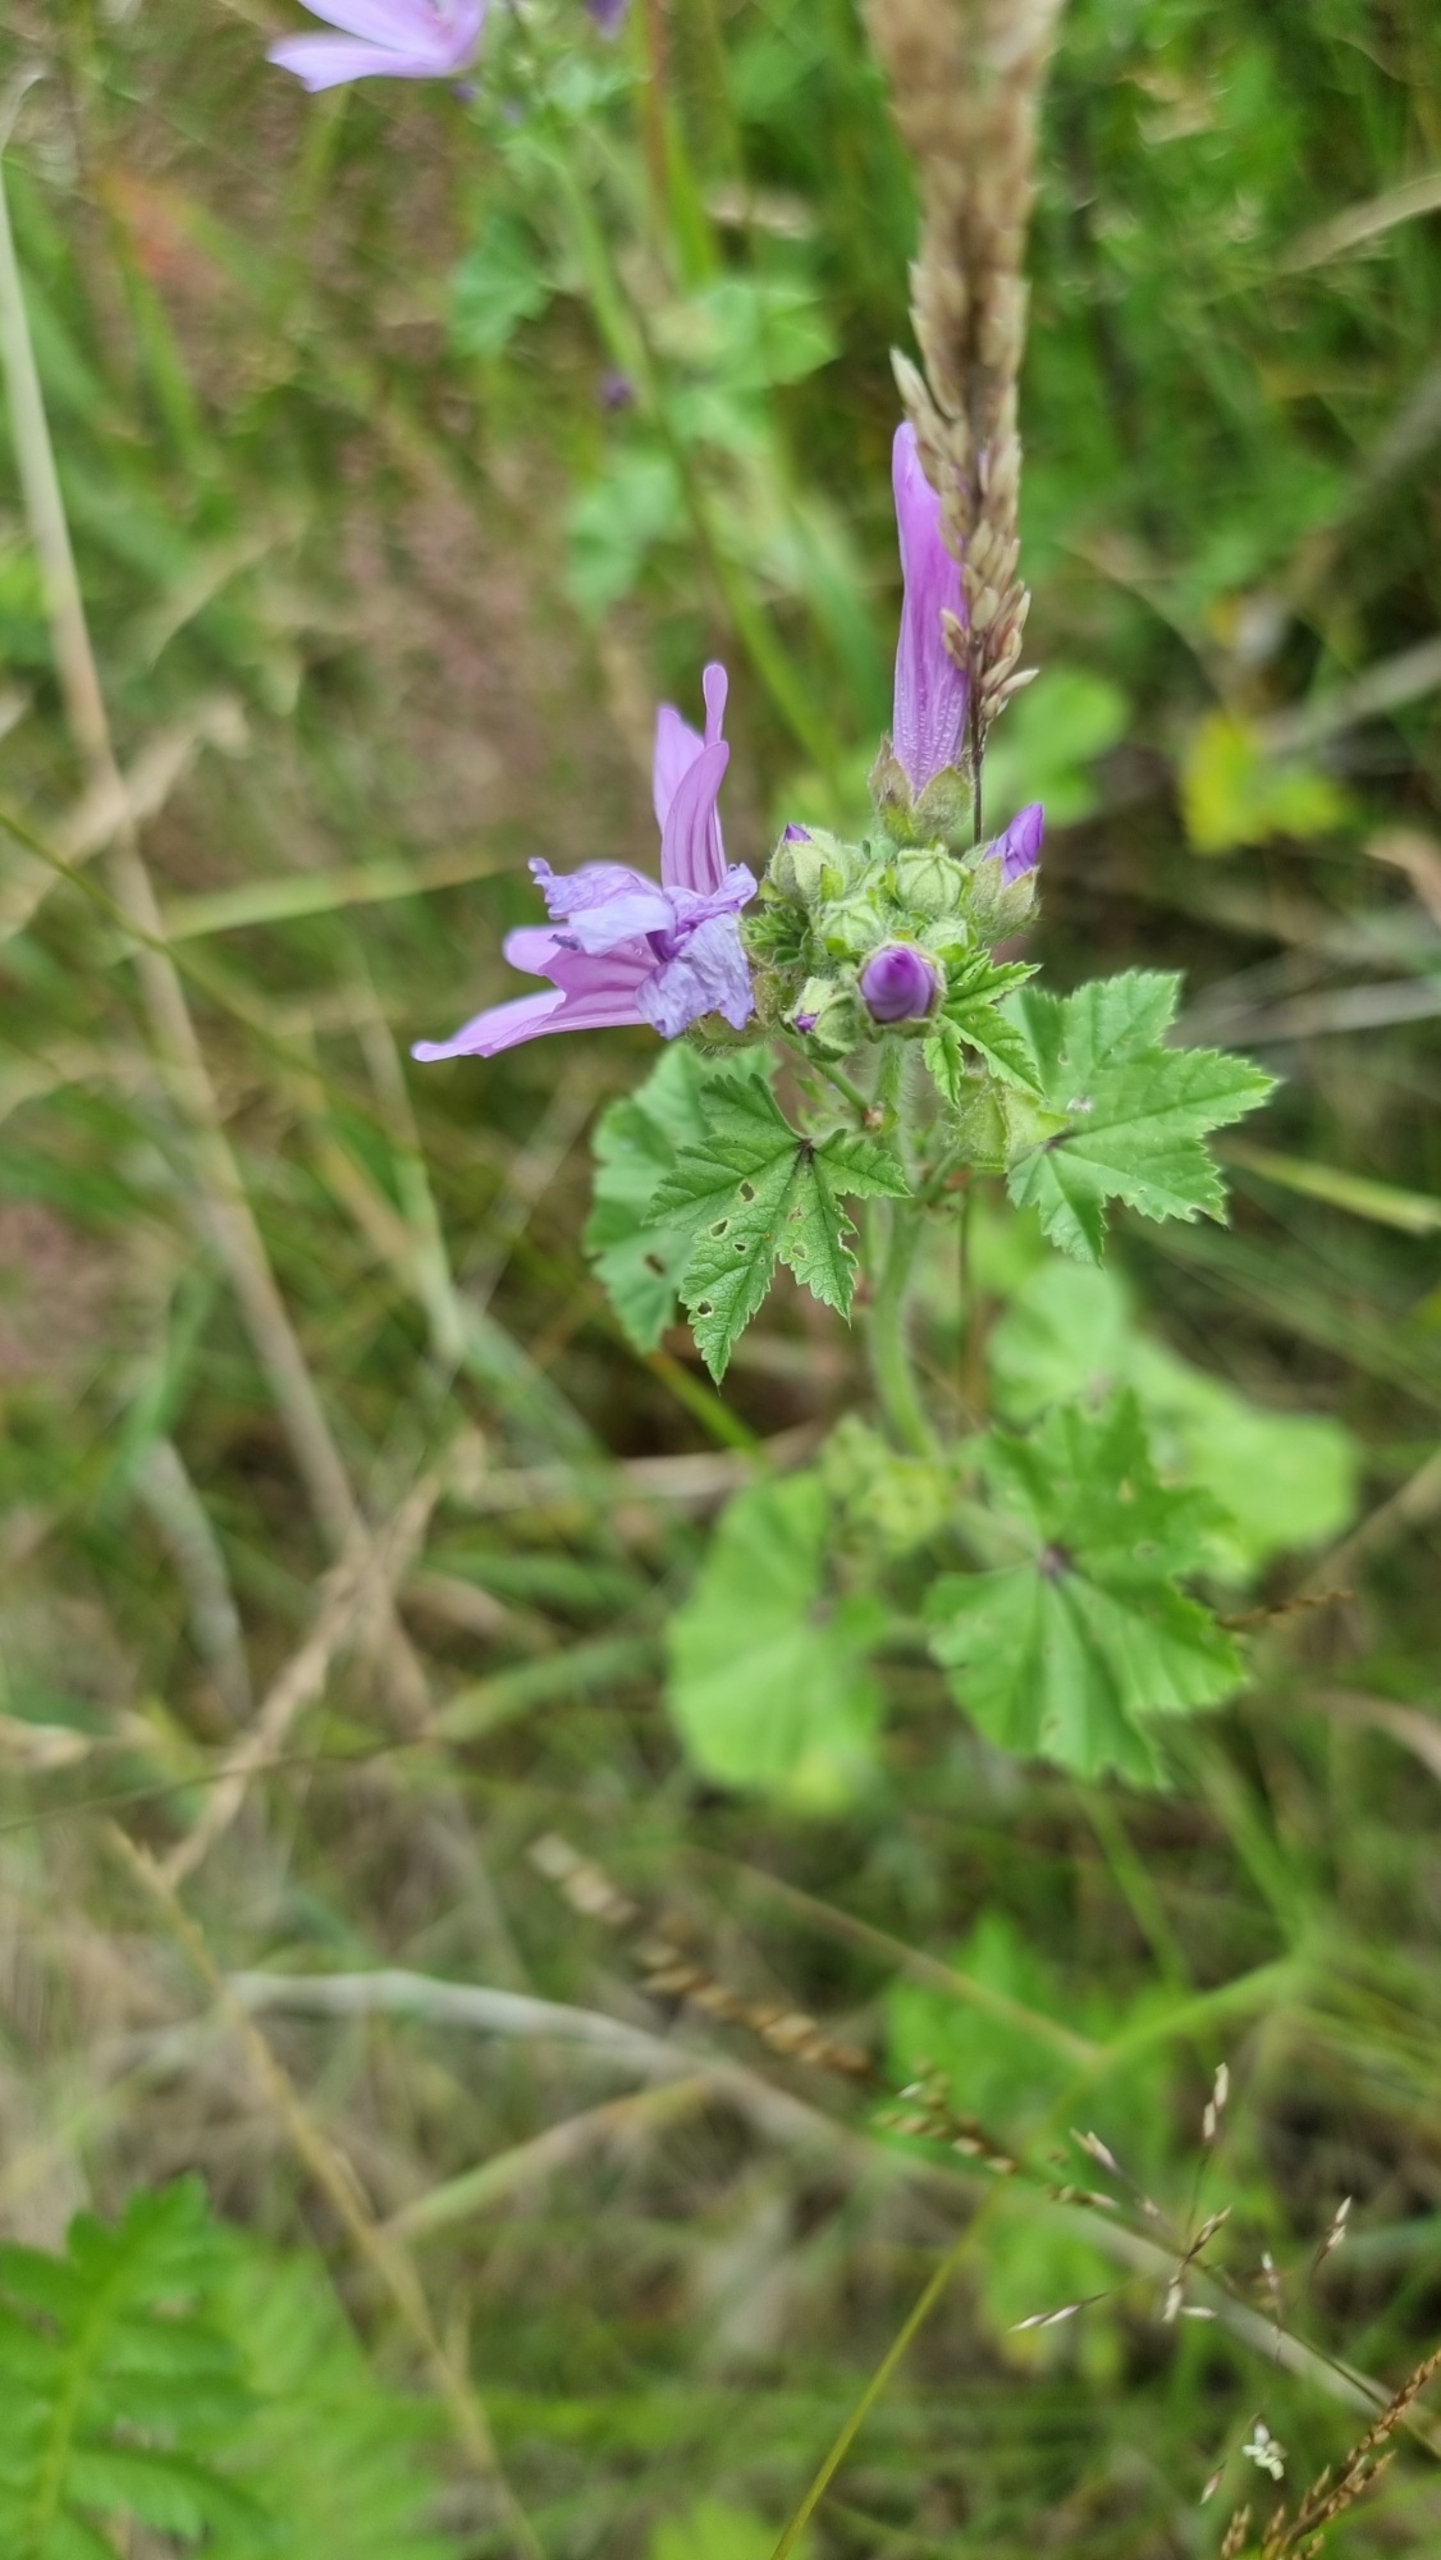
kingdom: Plantae
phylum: Tracheophyta
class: Magnoliopsida
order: Malvales
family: Malvaceae
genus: Malva
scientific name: Malva sylvestris
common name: Almindelig katost
